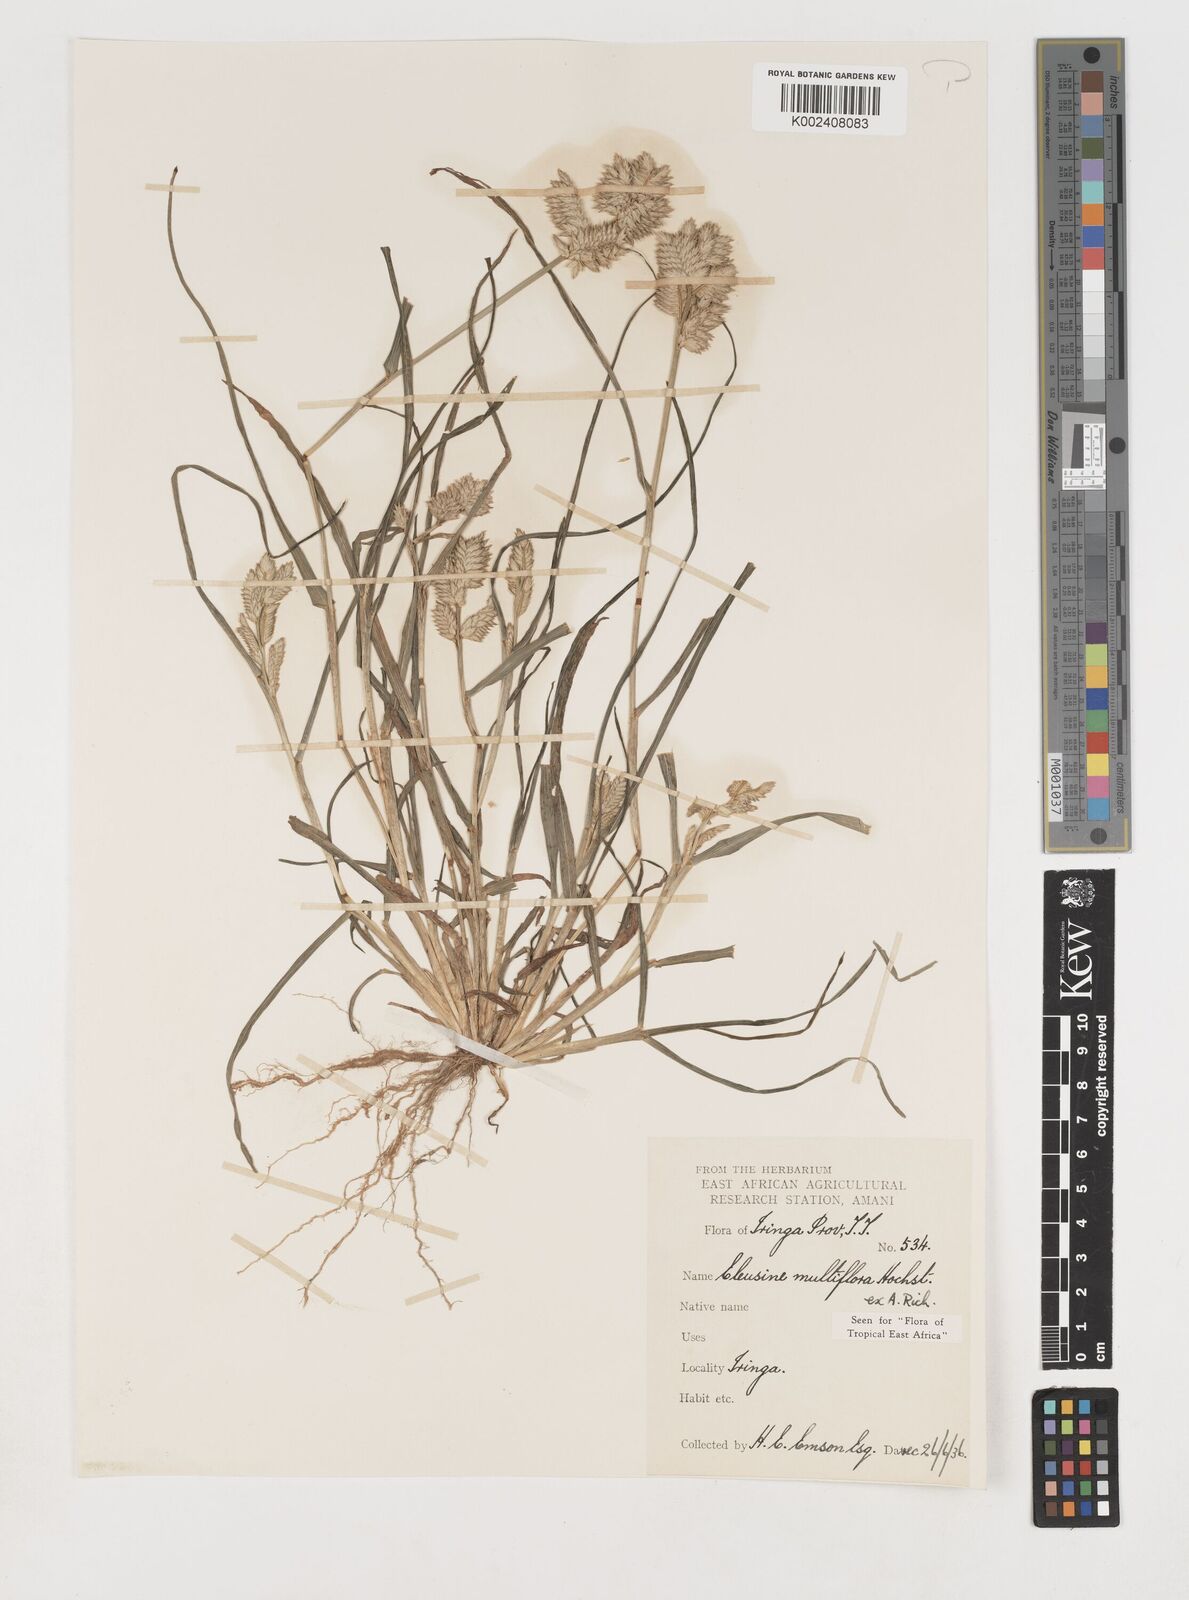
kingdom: Plantae
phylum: Tracheophyta
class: Liliopsida
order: Poales
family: Poaceae
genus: Eleusine
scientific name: Eleusine multiflora
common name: Fat-spiked yard-grass
